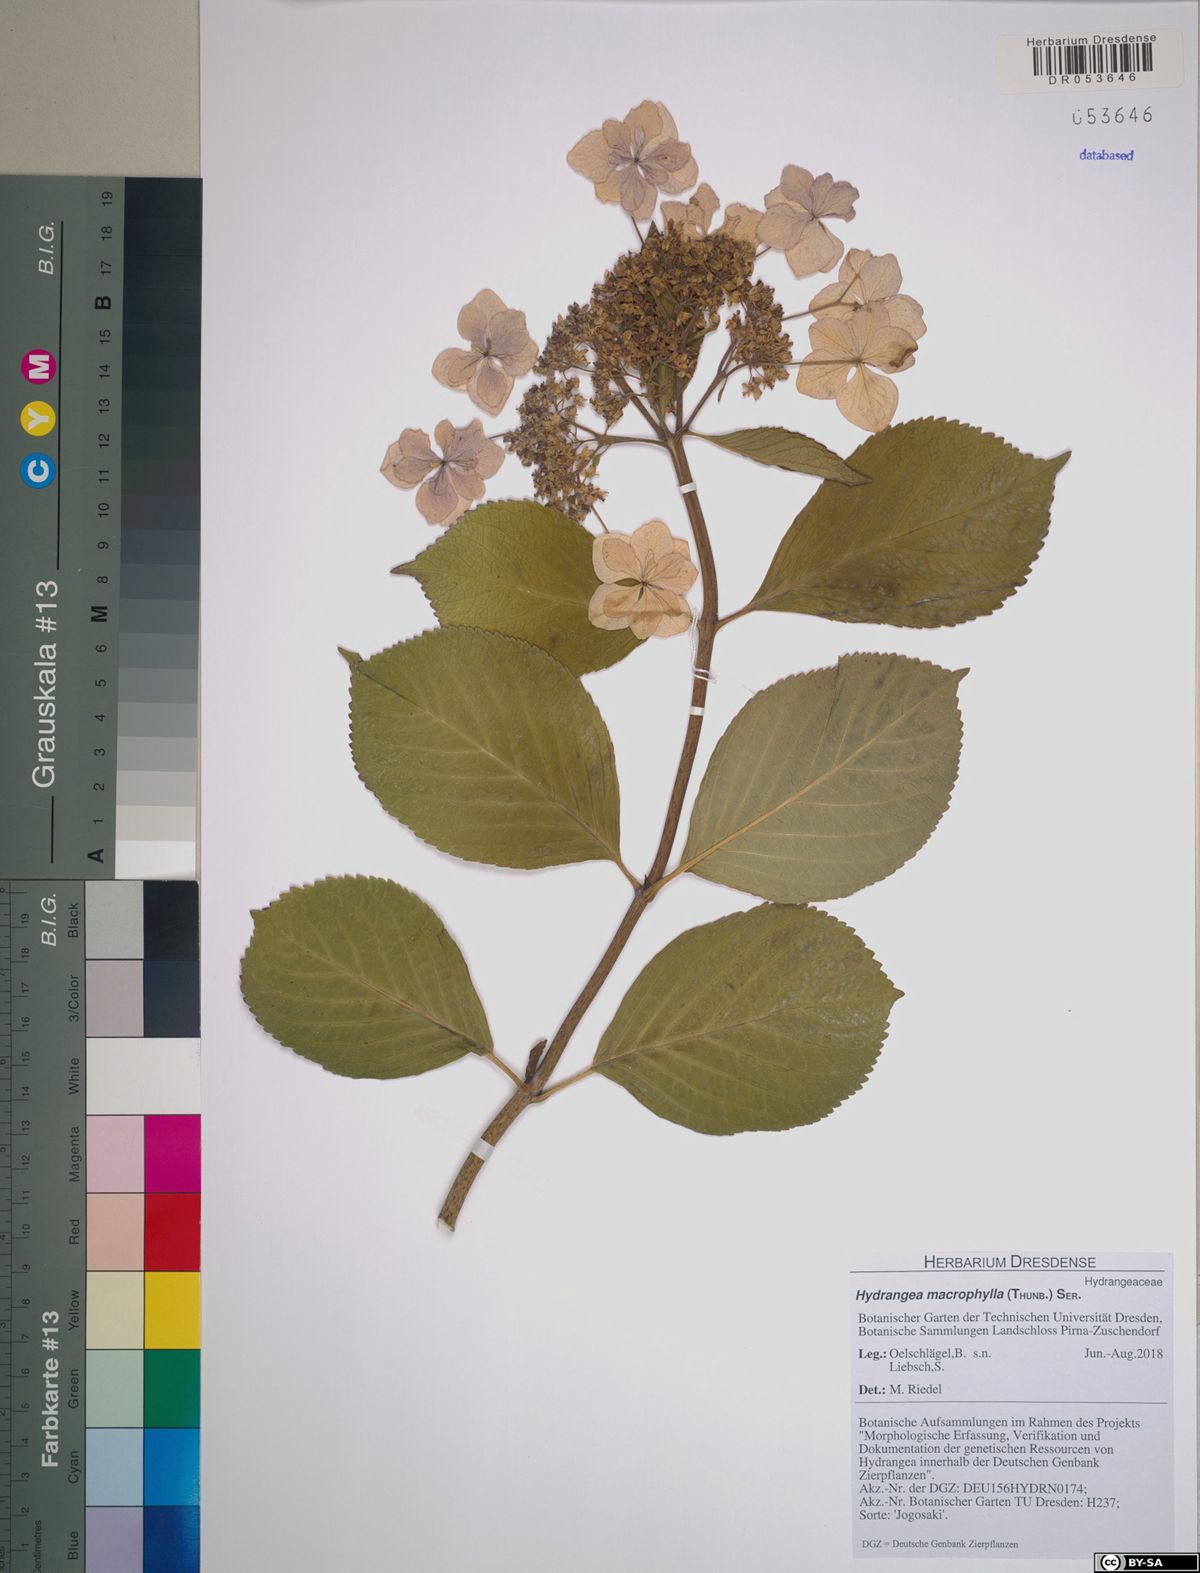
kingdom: Plantae
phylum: Tracheophyta
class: Magnoliopsida
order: Cornales
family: Hydrangeaceae
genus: Hydrangea
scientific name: Hydrangea macrophylla
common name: Hydrangea
